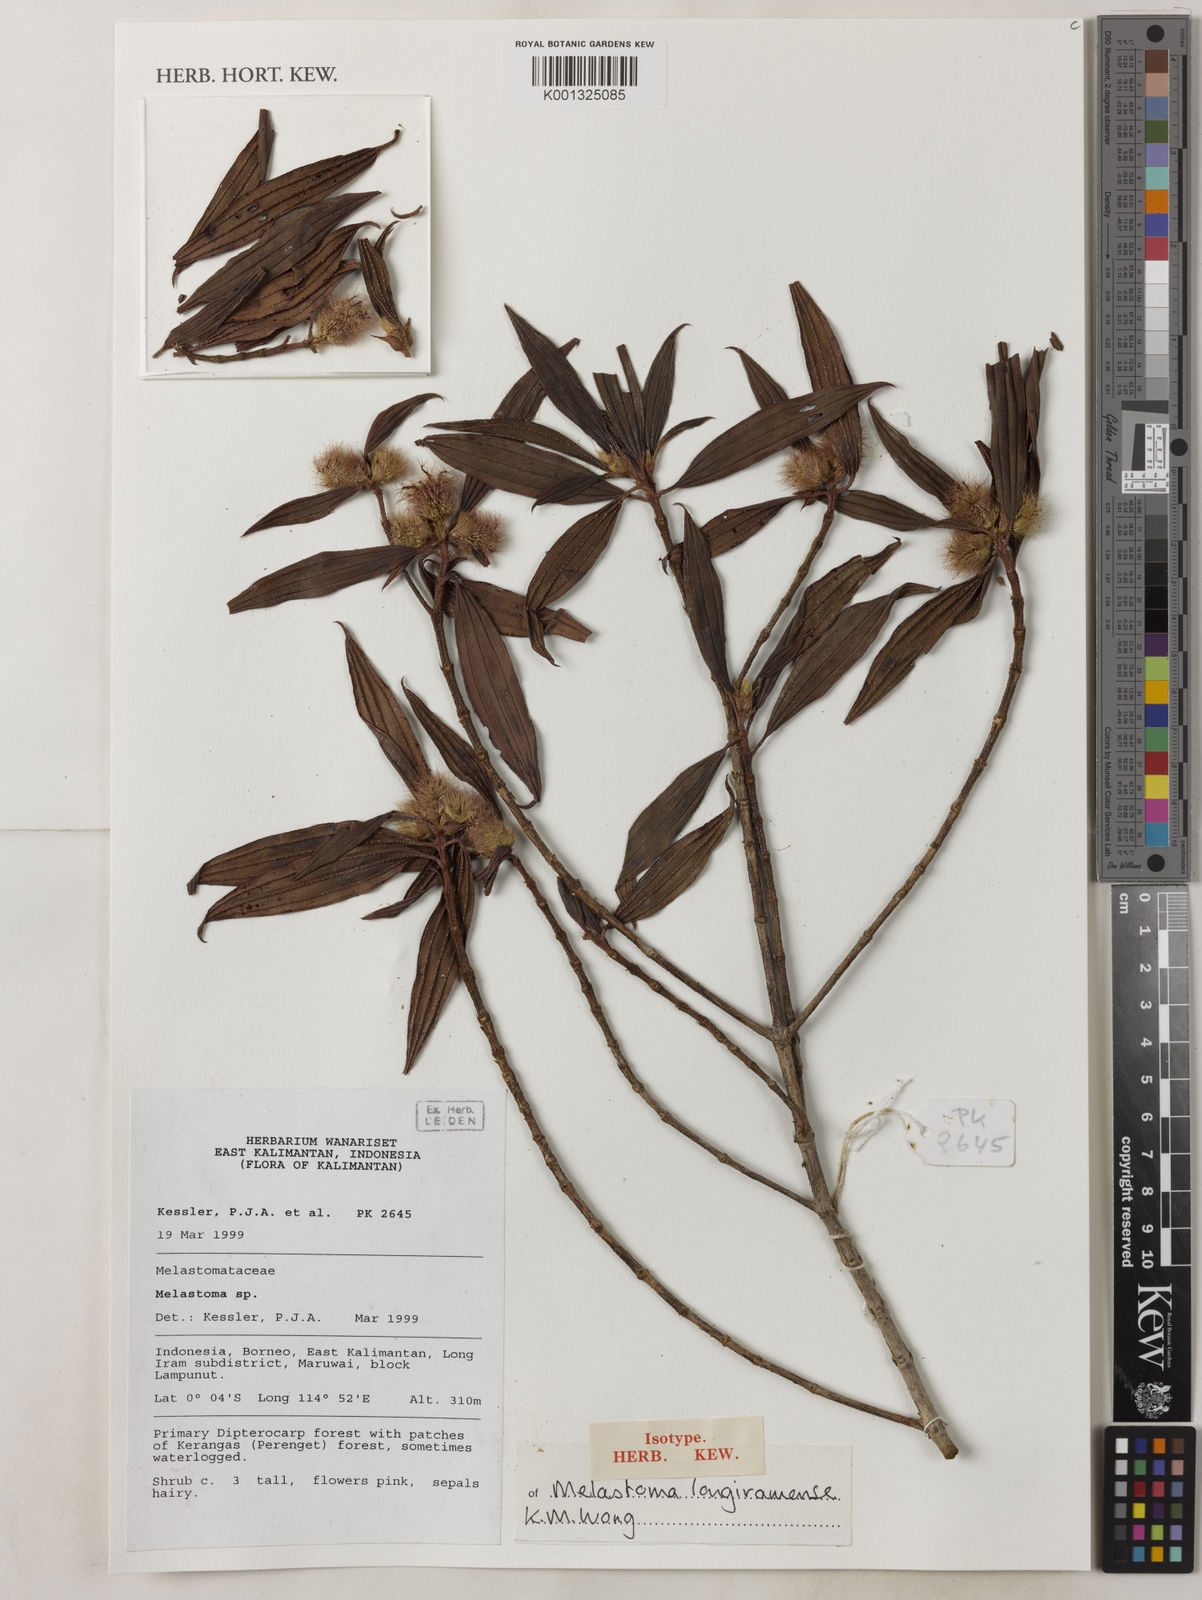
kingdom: Plantae
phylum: Tracheophyta
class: Magnoliopsida
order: Myrtales
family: Melastomataceae
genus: Melastoma
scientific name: Melastoma longiramense
